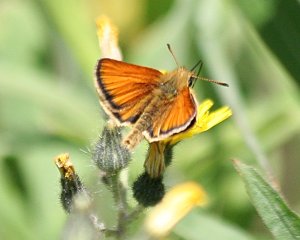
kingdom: Animalia
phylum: Arthropoda
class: Insecta
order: Lepidoptera
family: Hesperiidae
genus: Thymelicus
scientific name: Thymelicus lineola
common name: European Skipper
